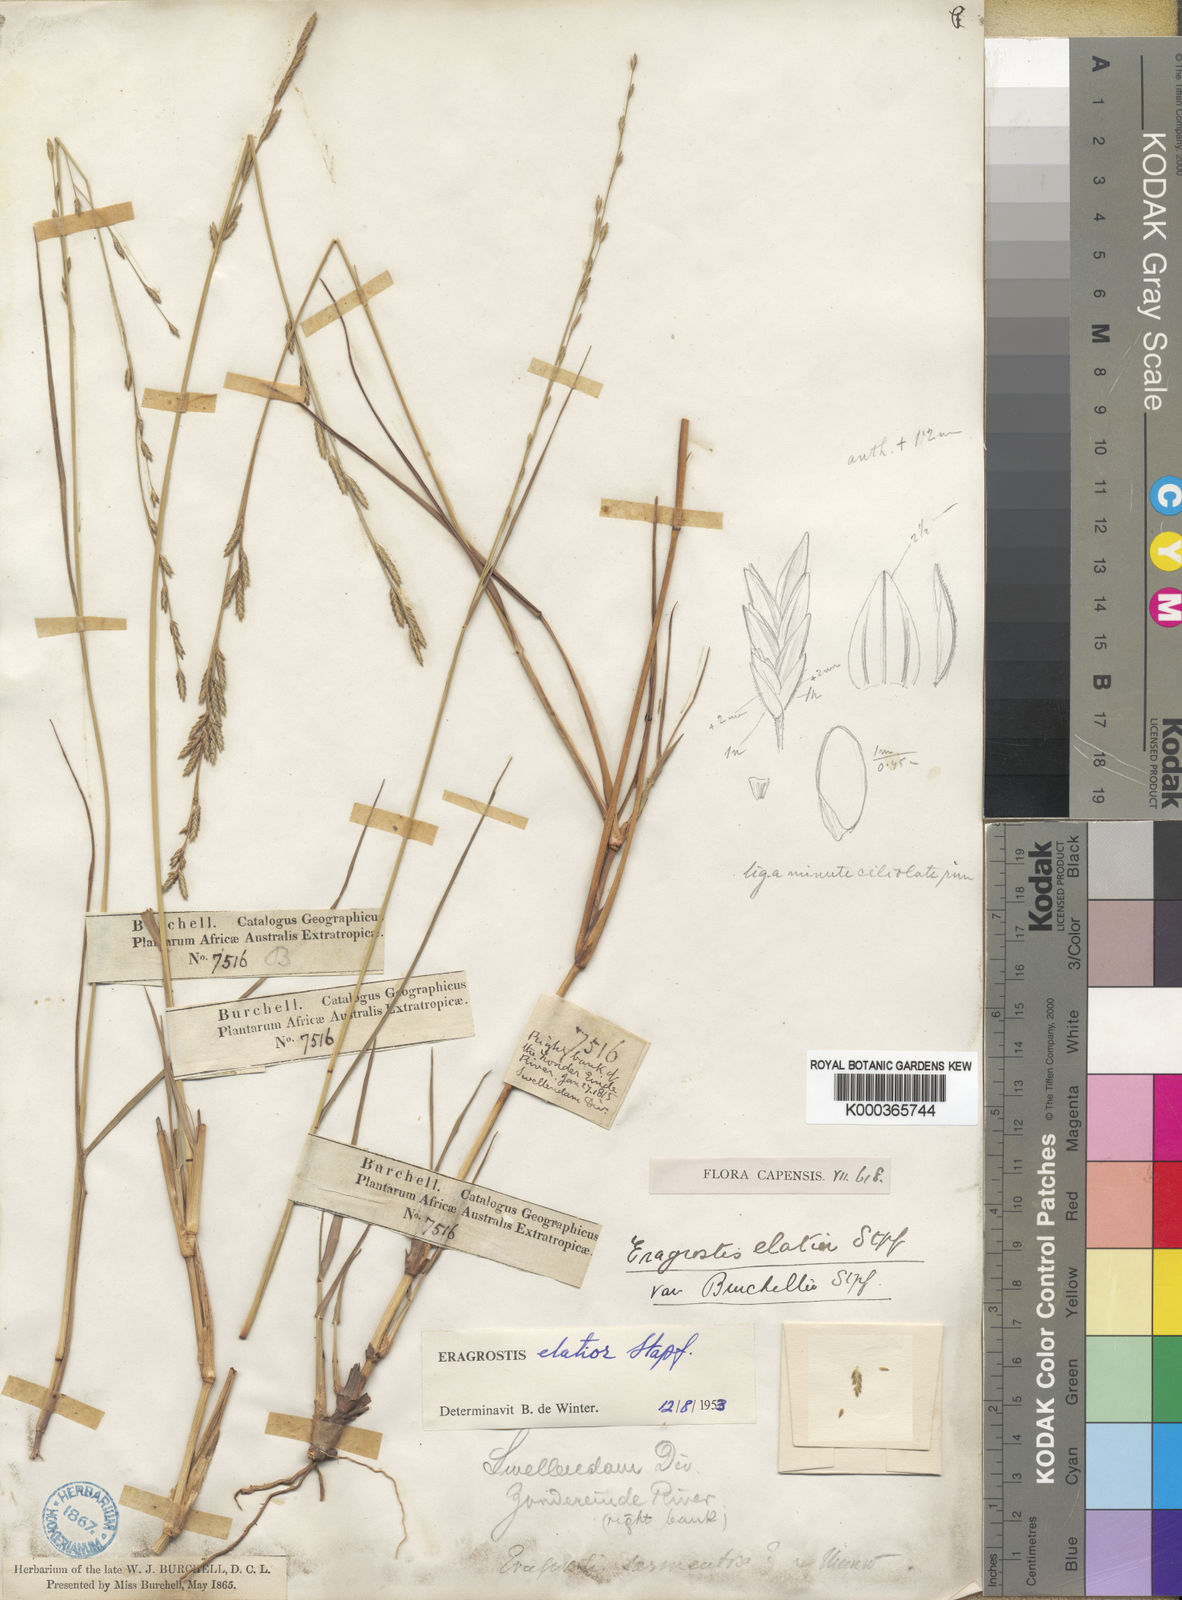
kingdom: Plantae
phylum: Tracheophyta
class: Liliopsida
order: Poales
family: Poaceae
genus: Eragrostis
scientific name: Eragrostis elatior
